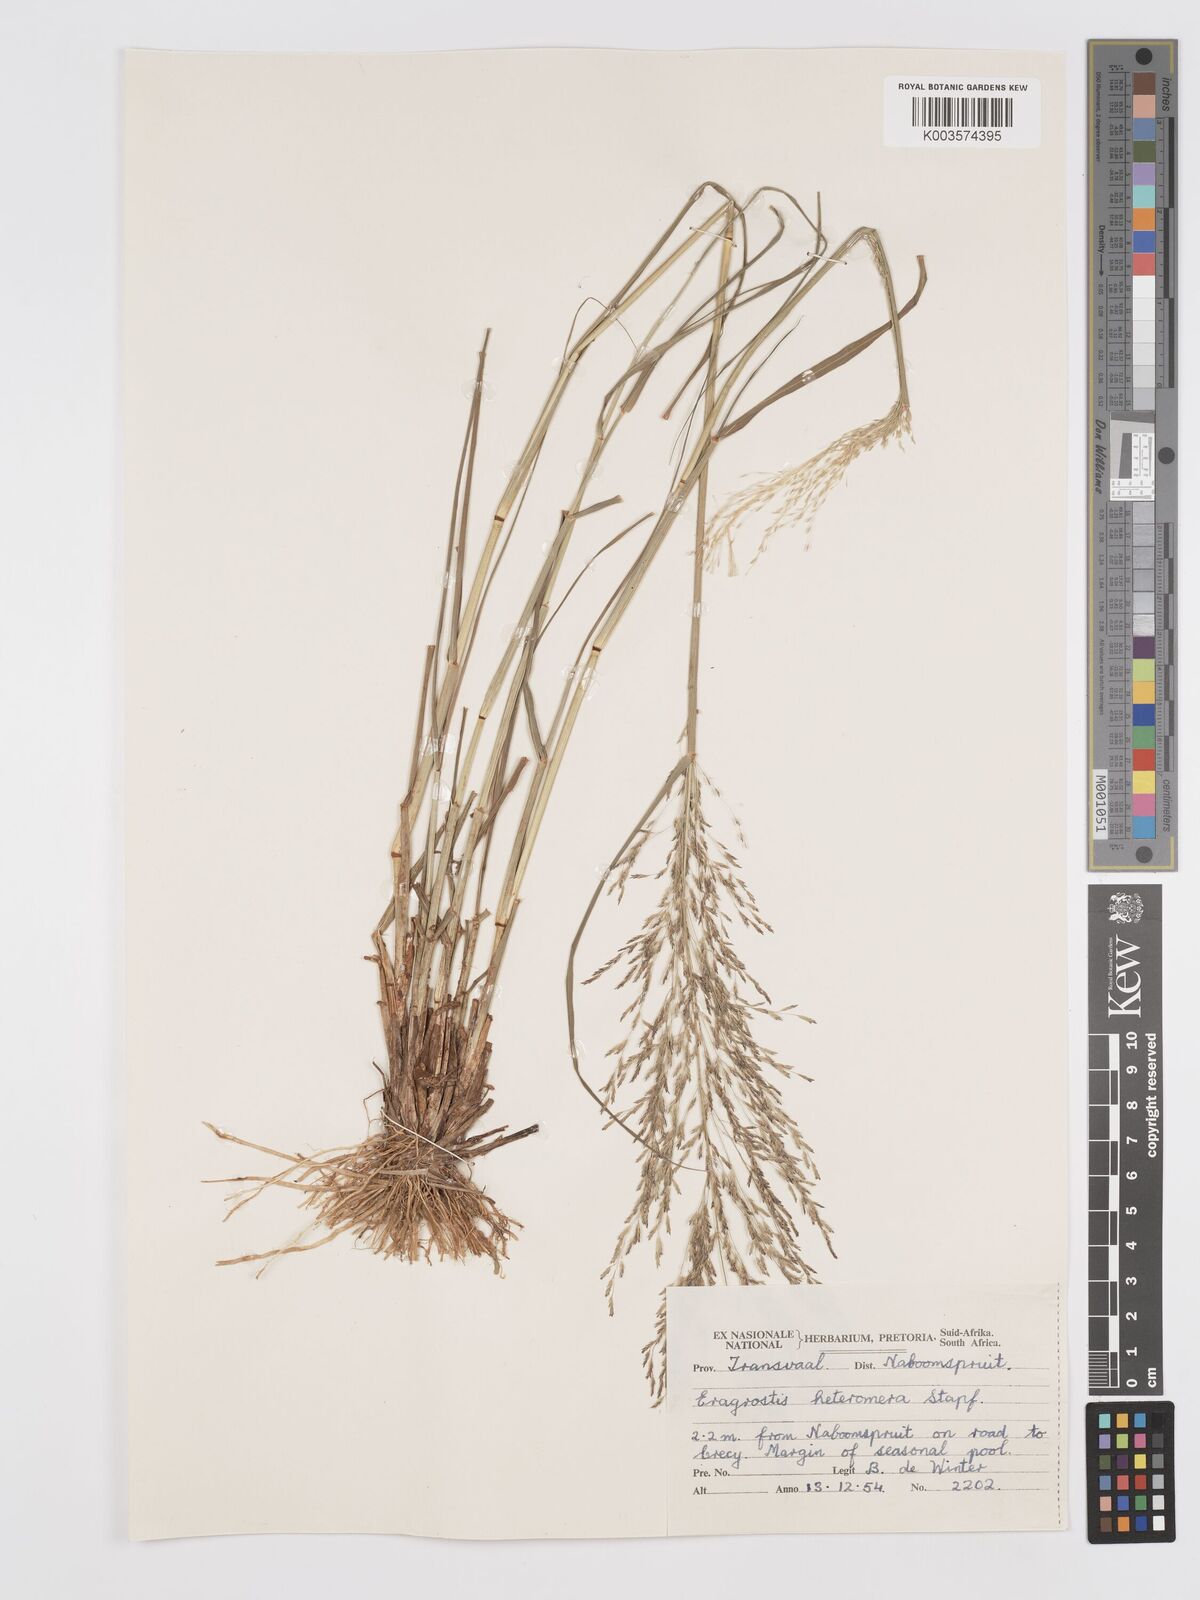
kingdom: Plantae
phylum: Tracheophyta
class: Liliopsida
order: Poales
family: Poaceae
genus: Eragrostis
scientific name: Eragrostis heteromera
